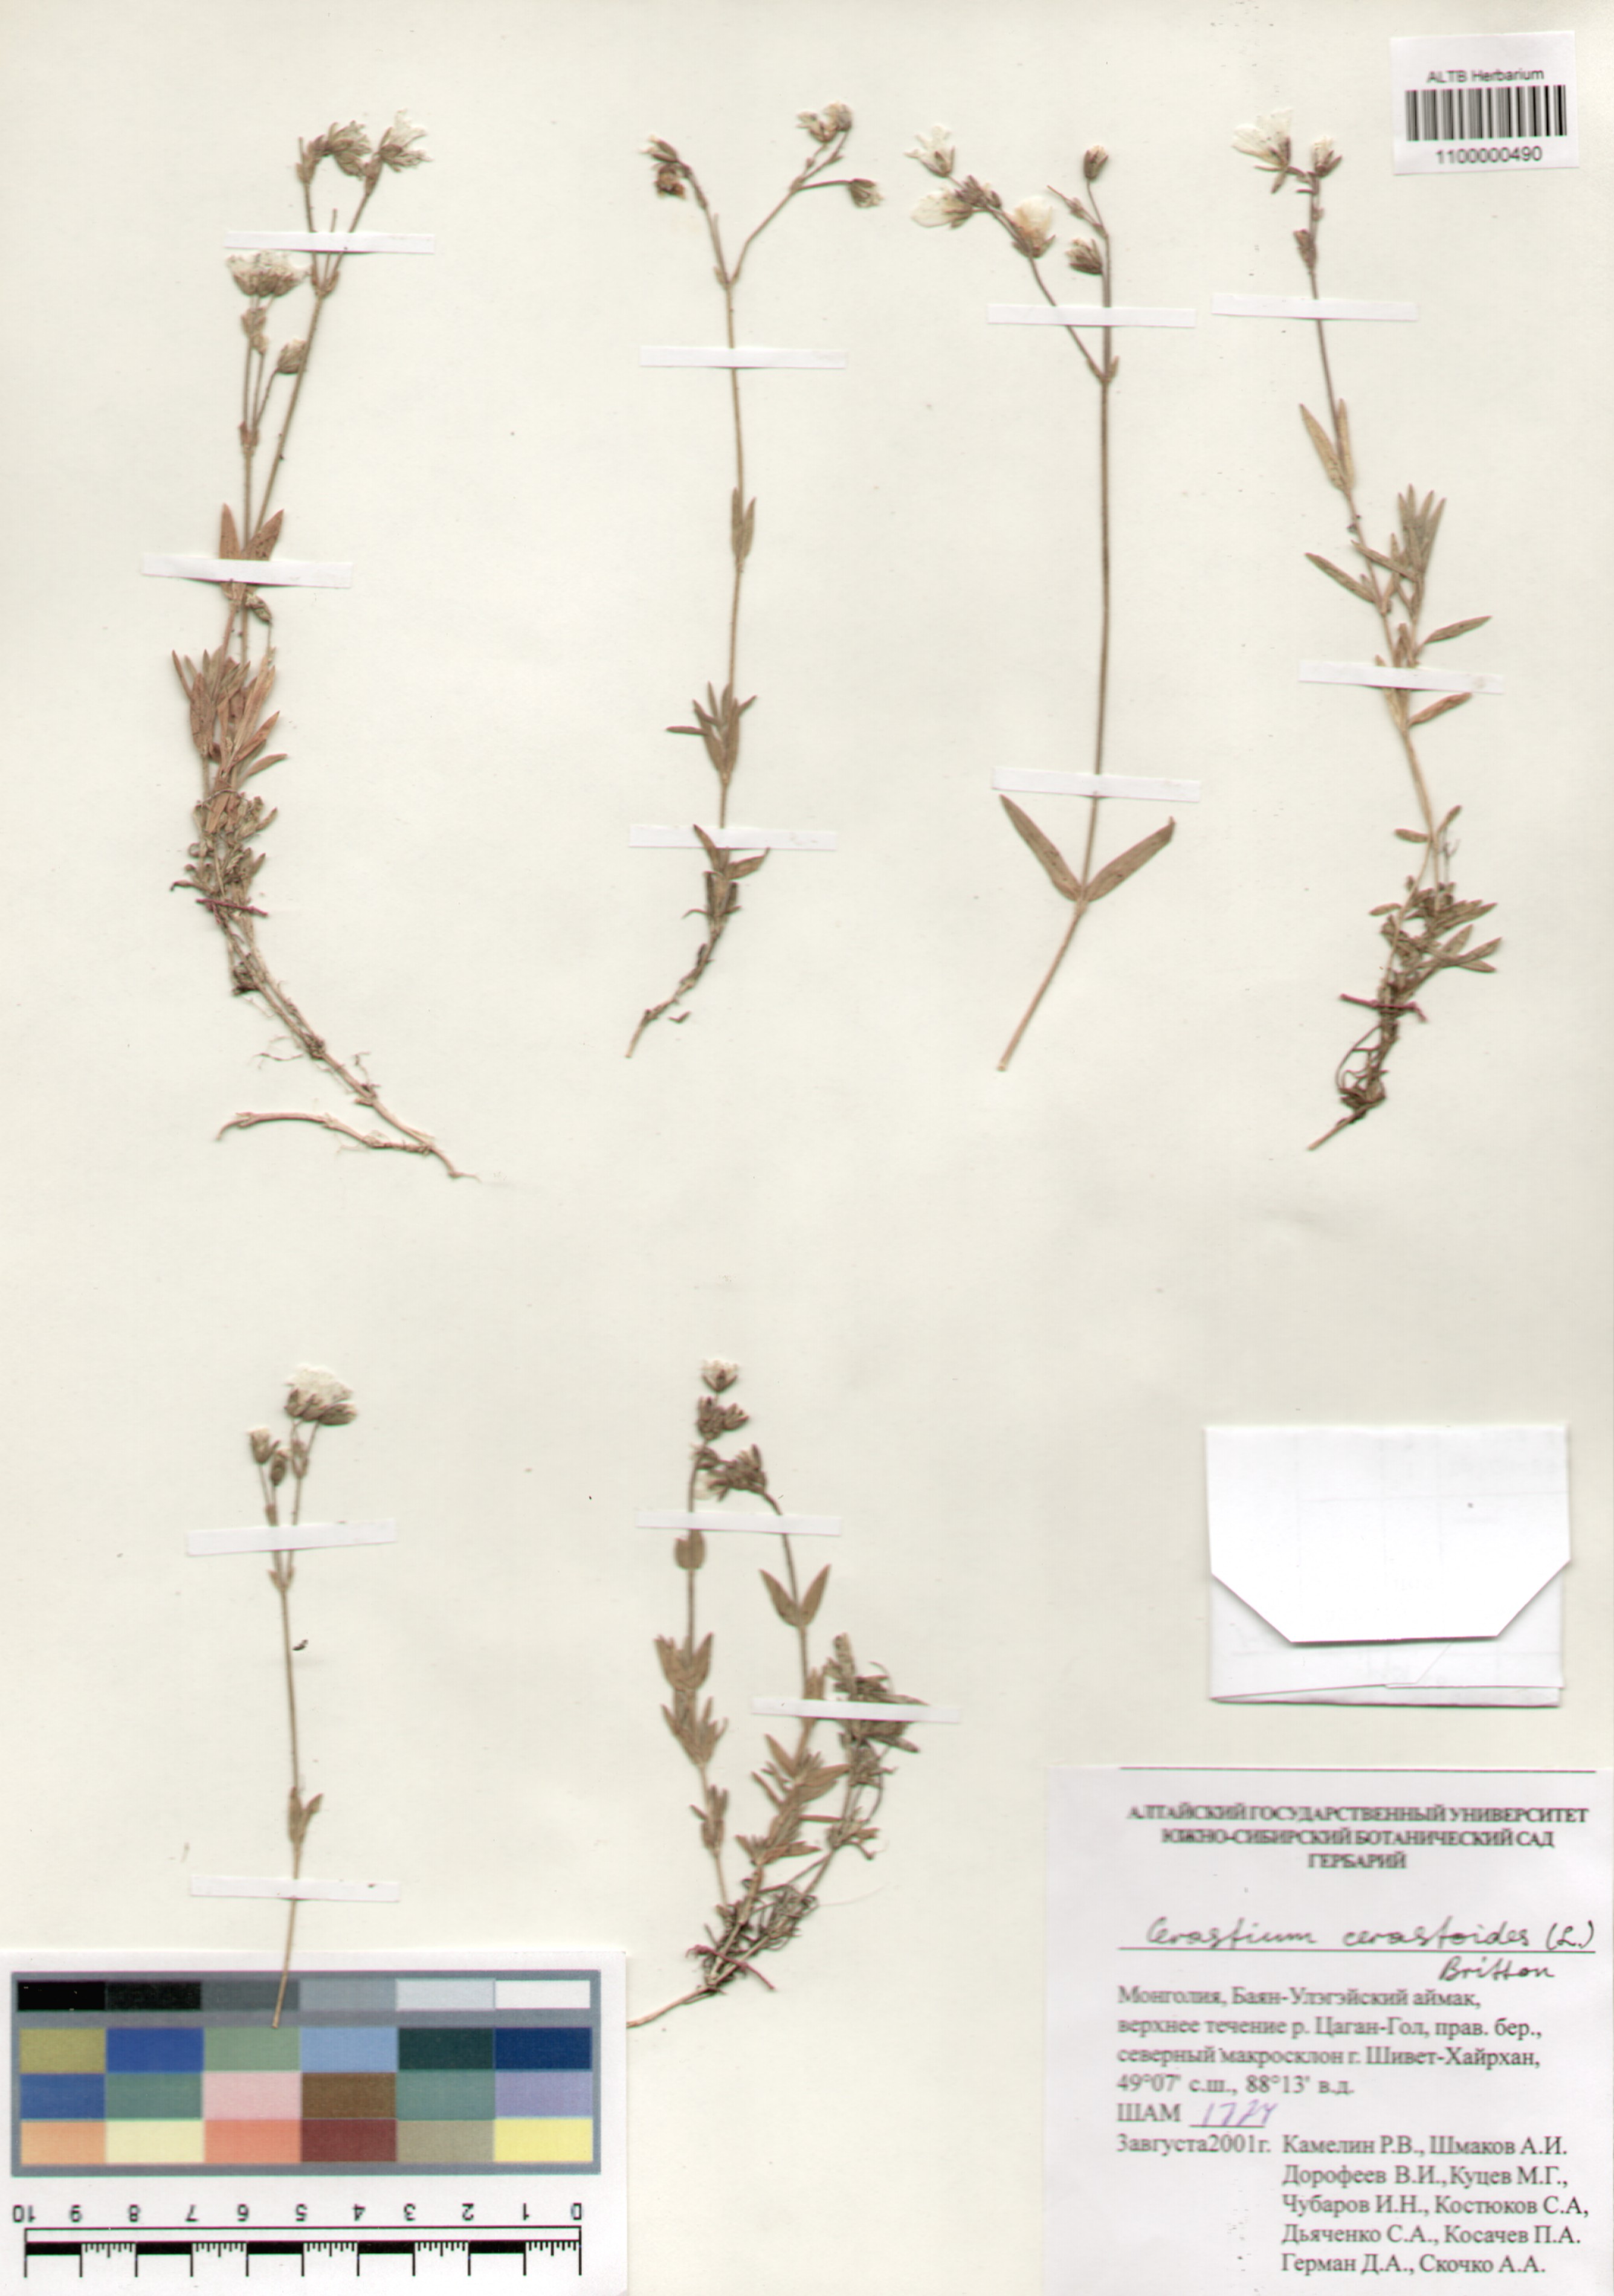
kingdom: Plantae
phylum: Tracheophyta
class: Magnoliopsida
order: Caryophyllales
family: Caryophyllaceae
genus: Dichodon
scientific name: Dichodon cerastoides
